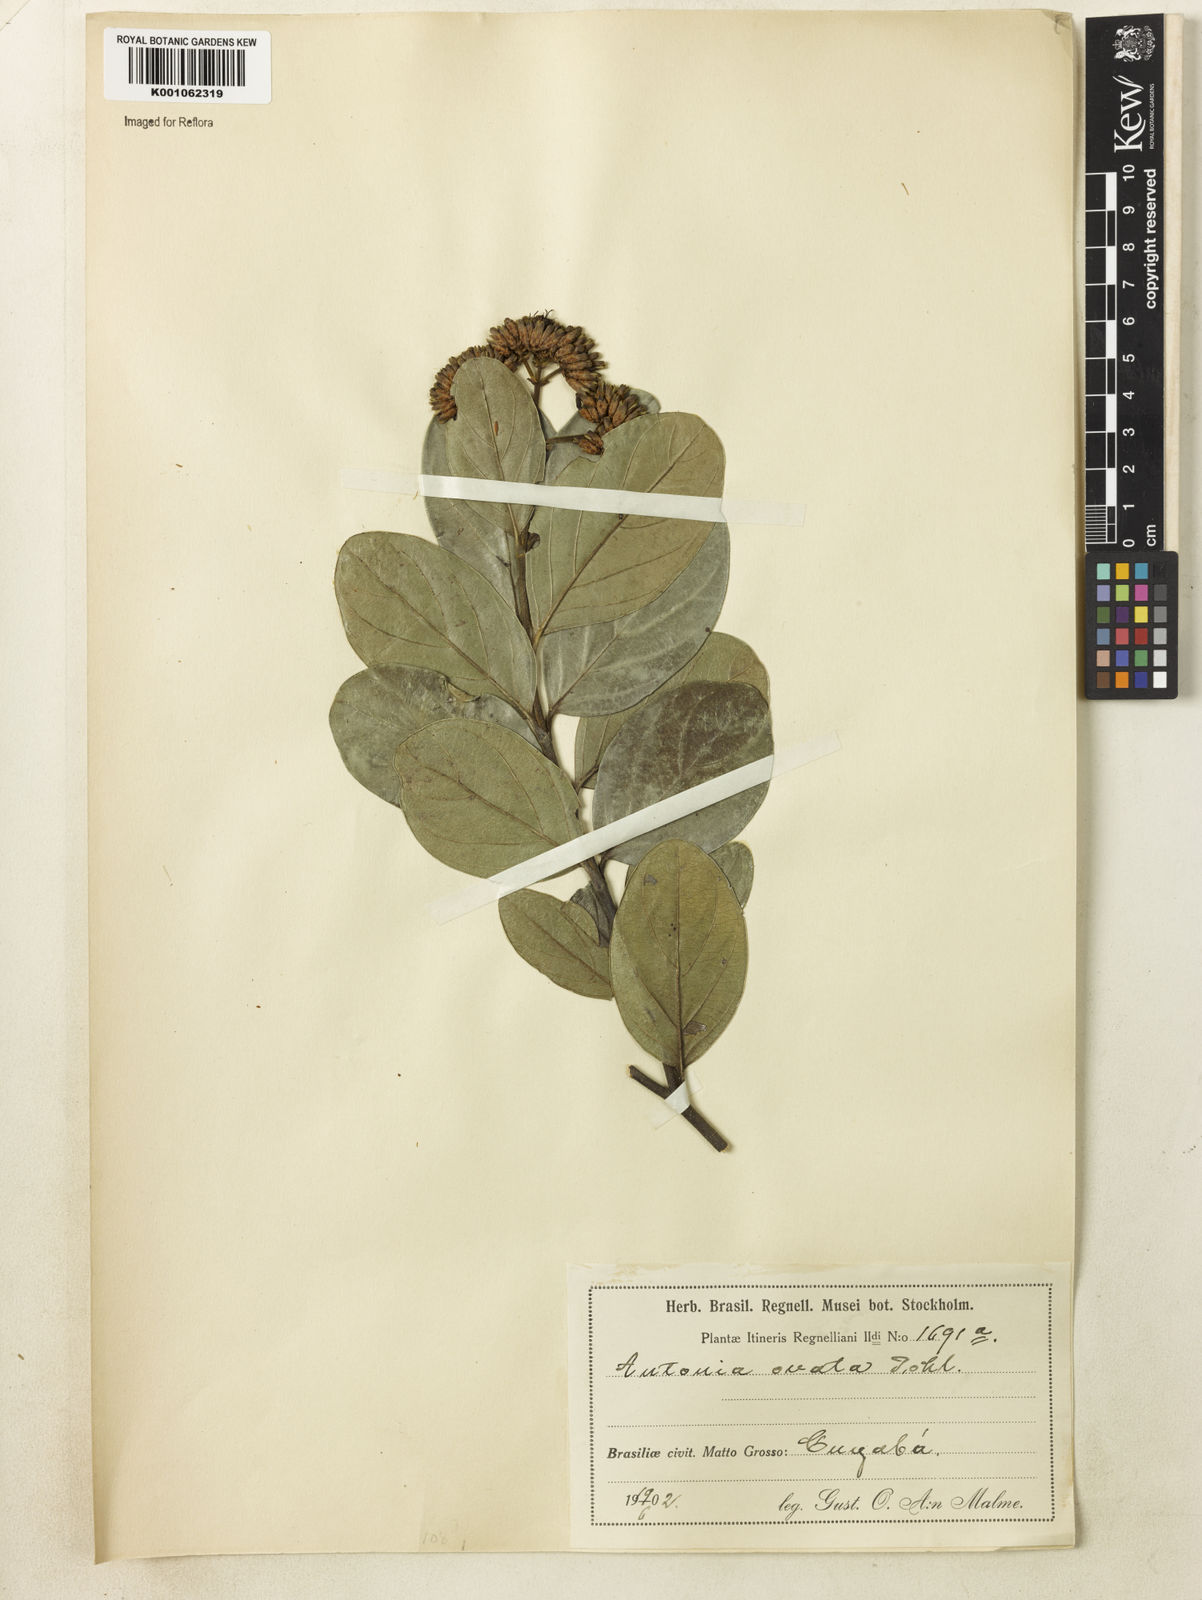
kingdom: Plantae
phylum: Tracheophyta
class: Magnoliopsida
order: Gentianales
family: Loganiaceae
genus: Antonia
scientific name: Antonia ovata
